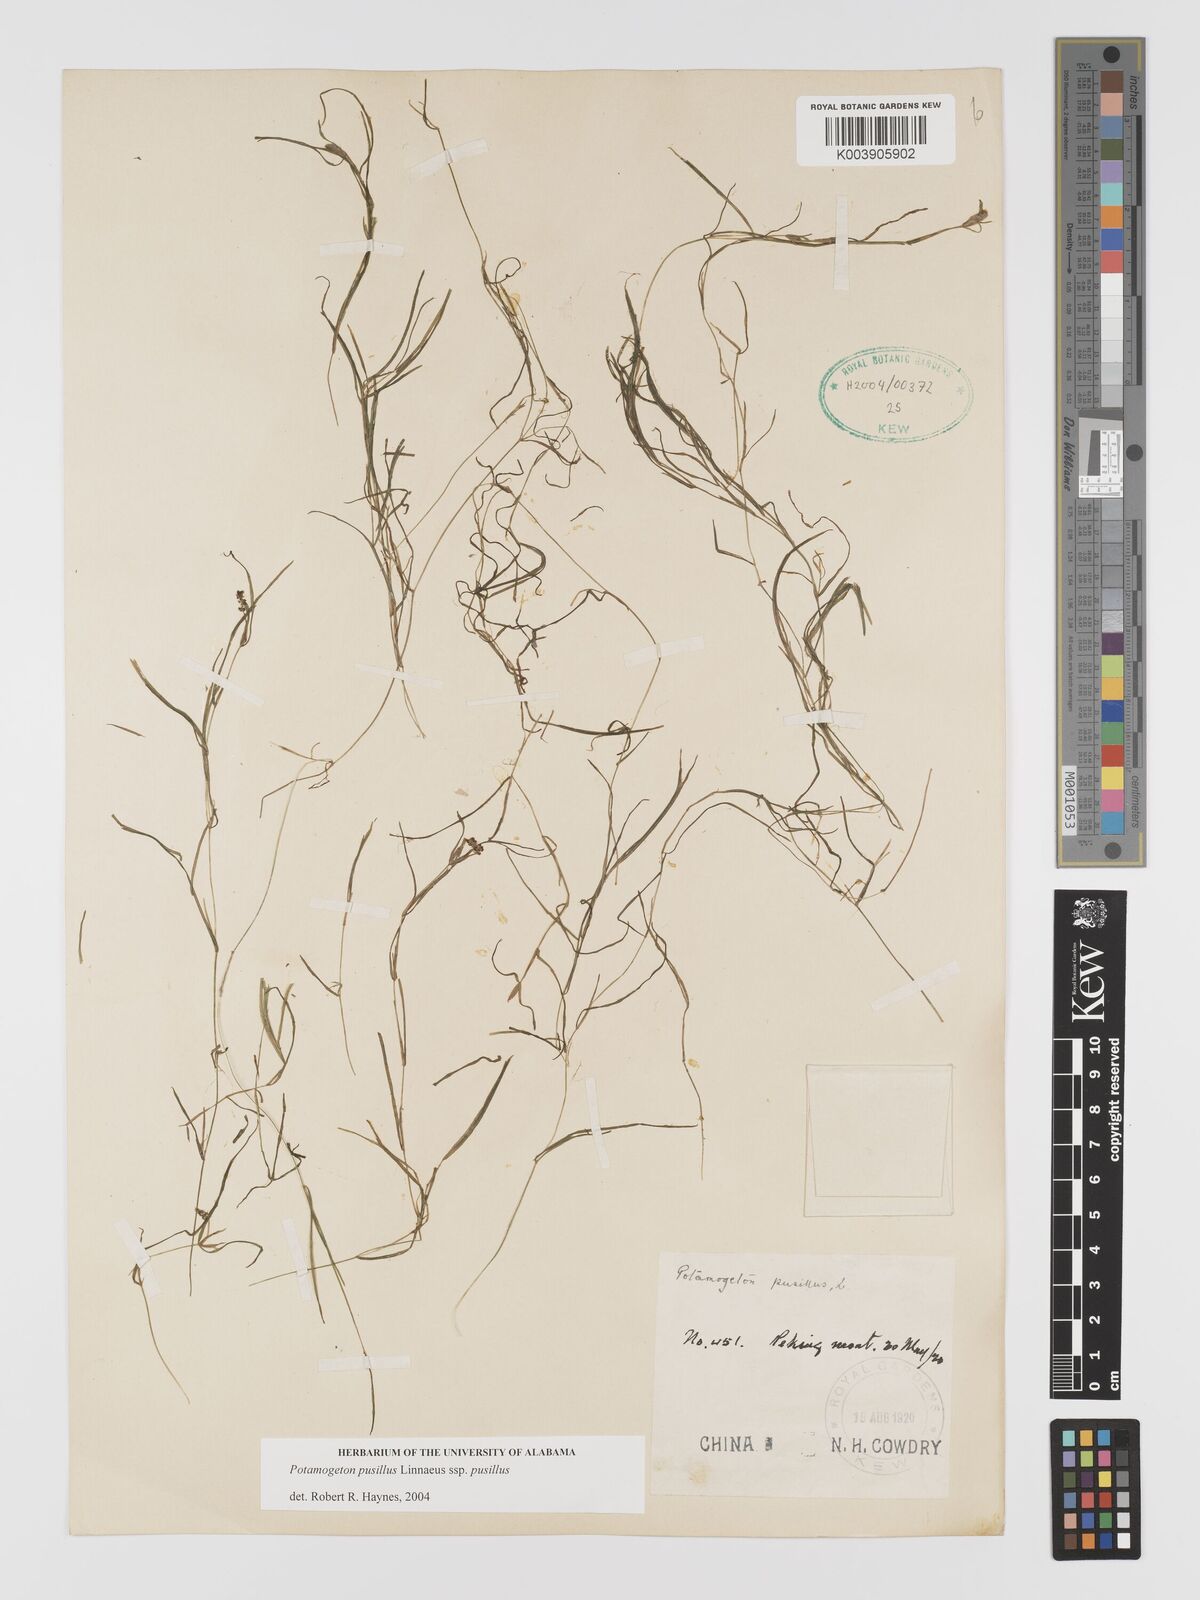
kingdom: Plantae
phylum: Tracheophyta
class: Liliopsida
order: Alismatales
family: Potamogetonaceae
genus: Potamogeton
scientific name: Potamogeton pusillus
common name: Lesser pondweed
